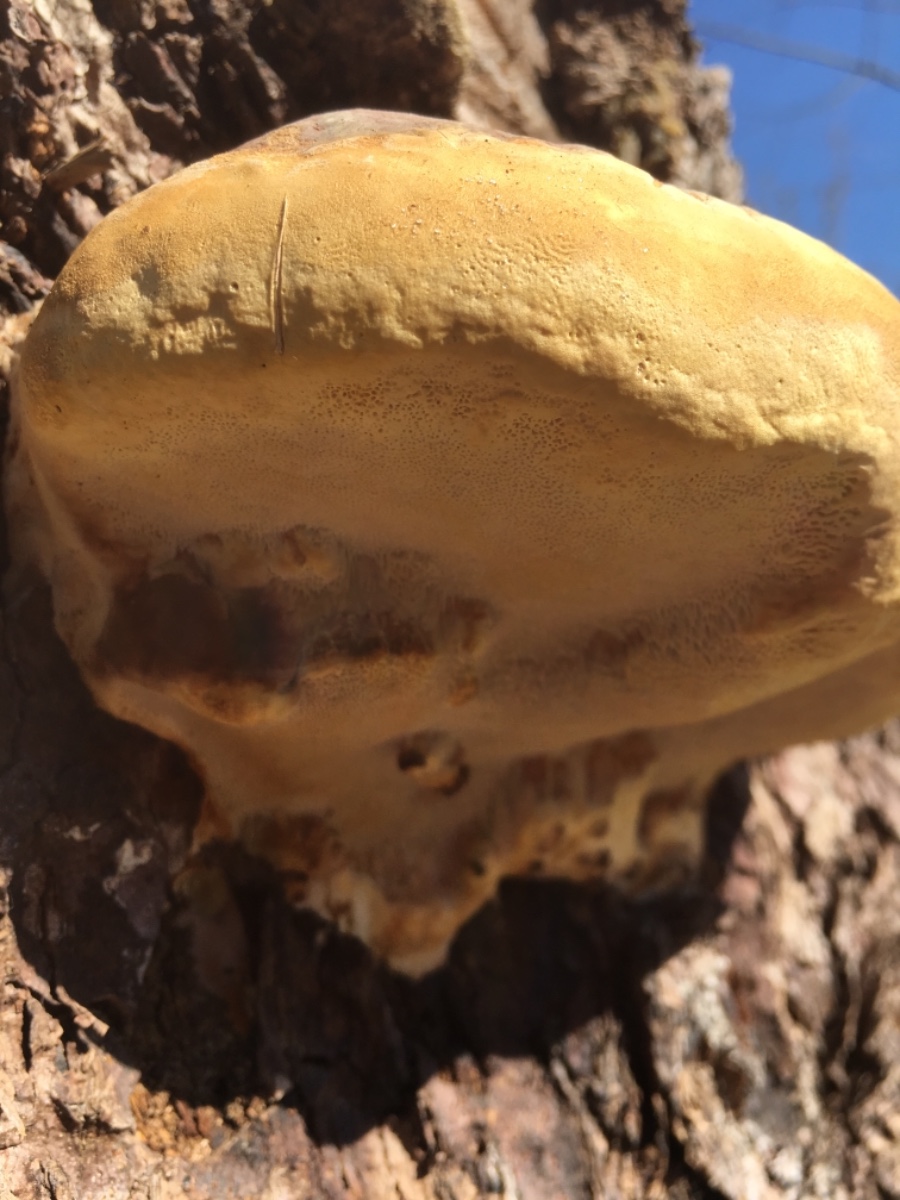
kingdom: Fungi
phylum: Basidiomycota
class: Agaricomycetes
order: Polyporales
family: Fomitopsidaceae
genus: Fomitopsis
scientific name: Fomitopsis pinicola
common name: randbæltet hovporesvamp
